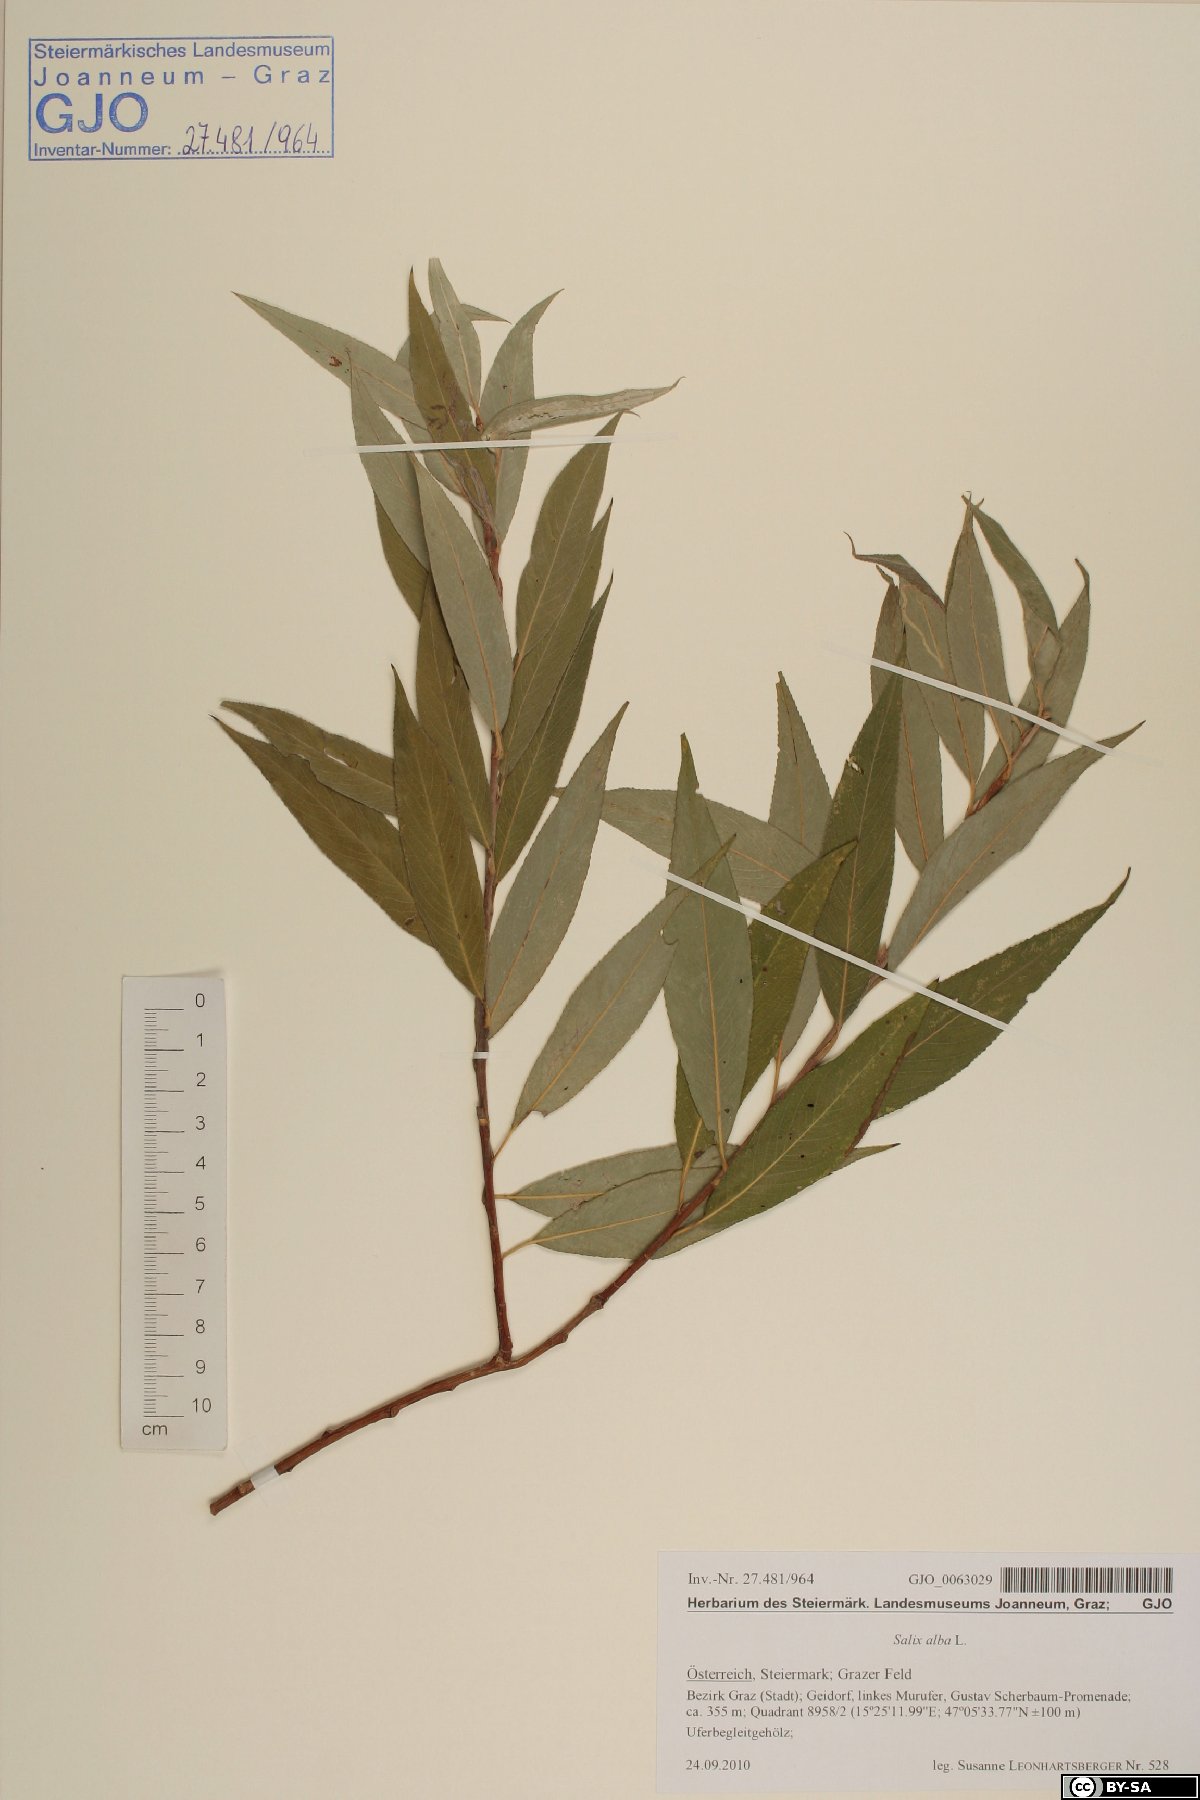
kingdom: Plantae
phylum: Tracheophyta
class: Magnoliopsida
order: Malpighiales
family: Salicaceae
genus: Salix
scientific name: Salix alba
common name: White willow
